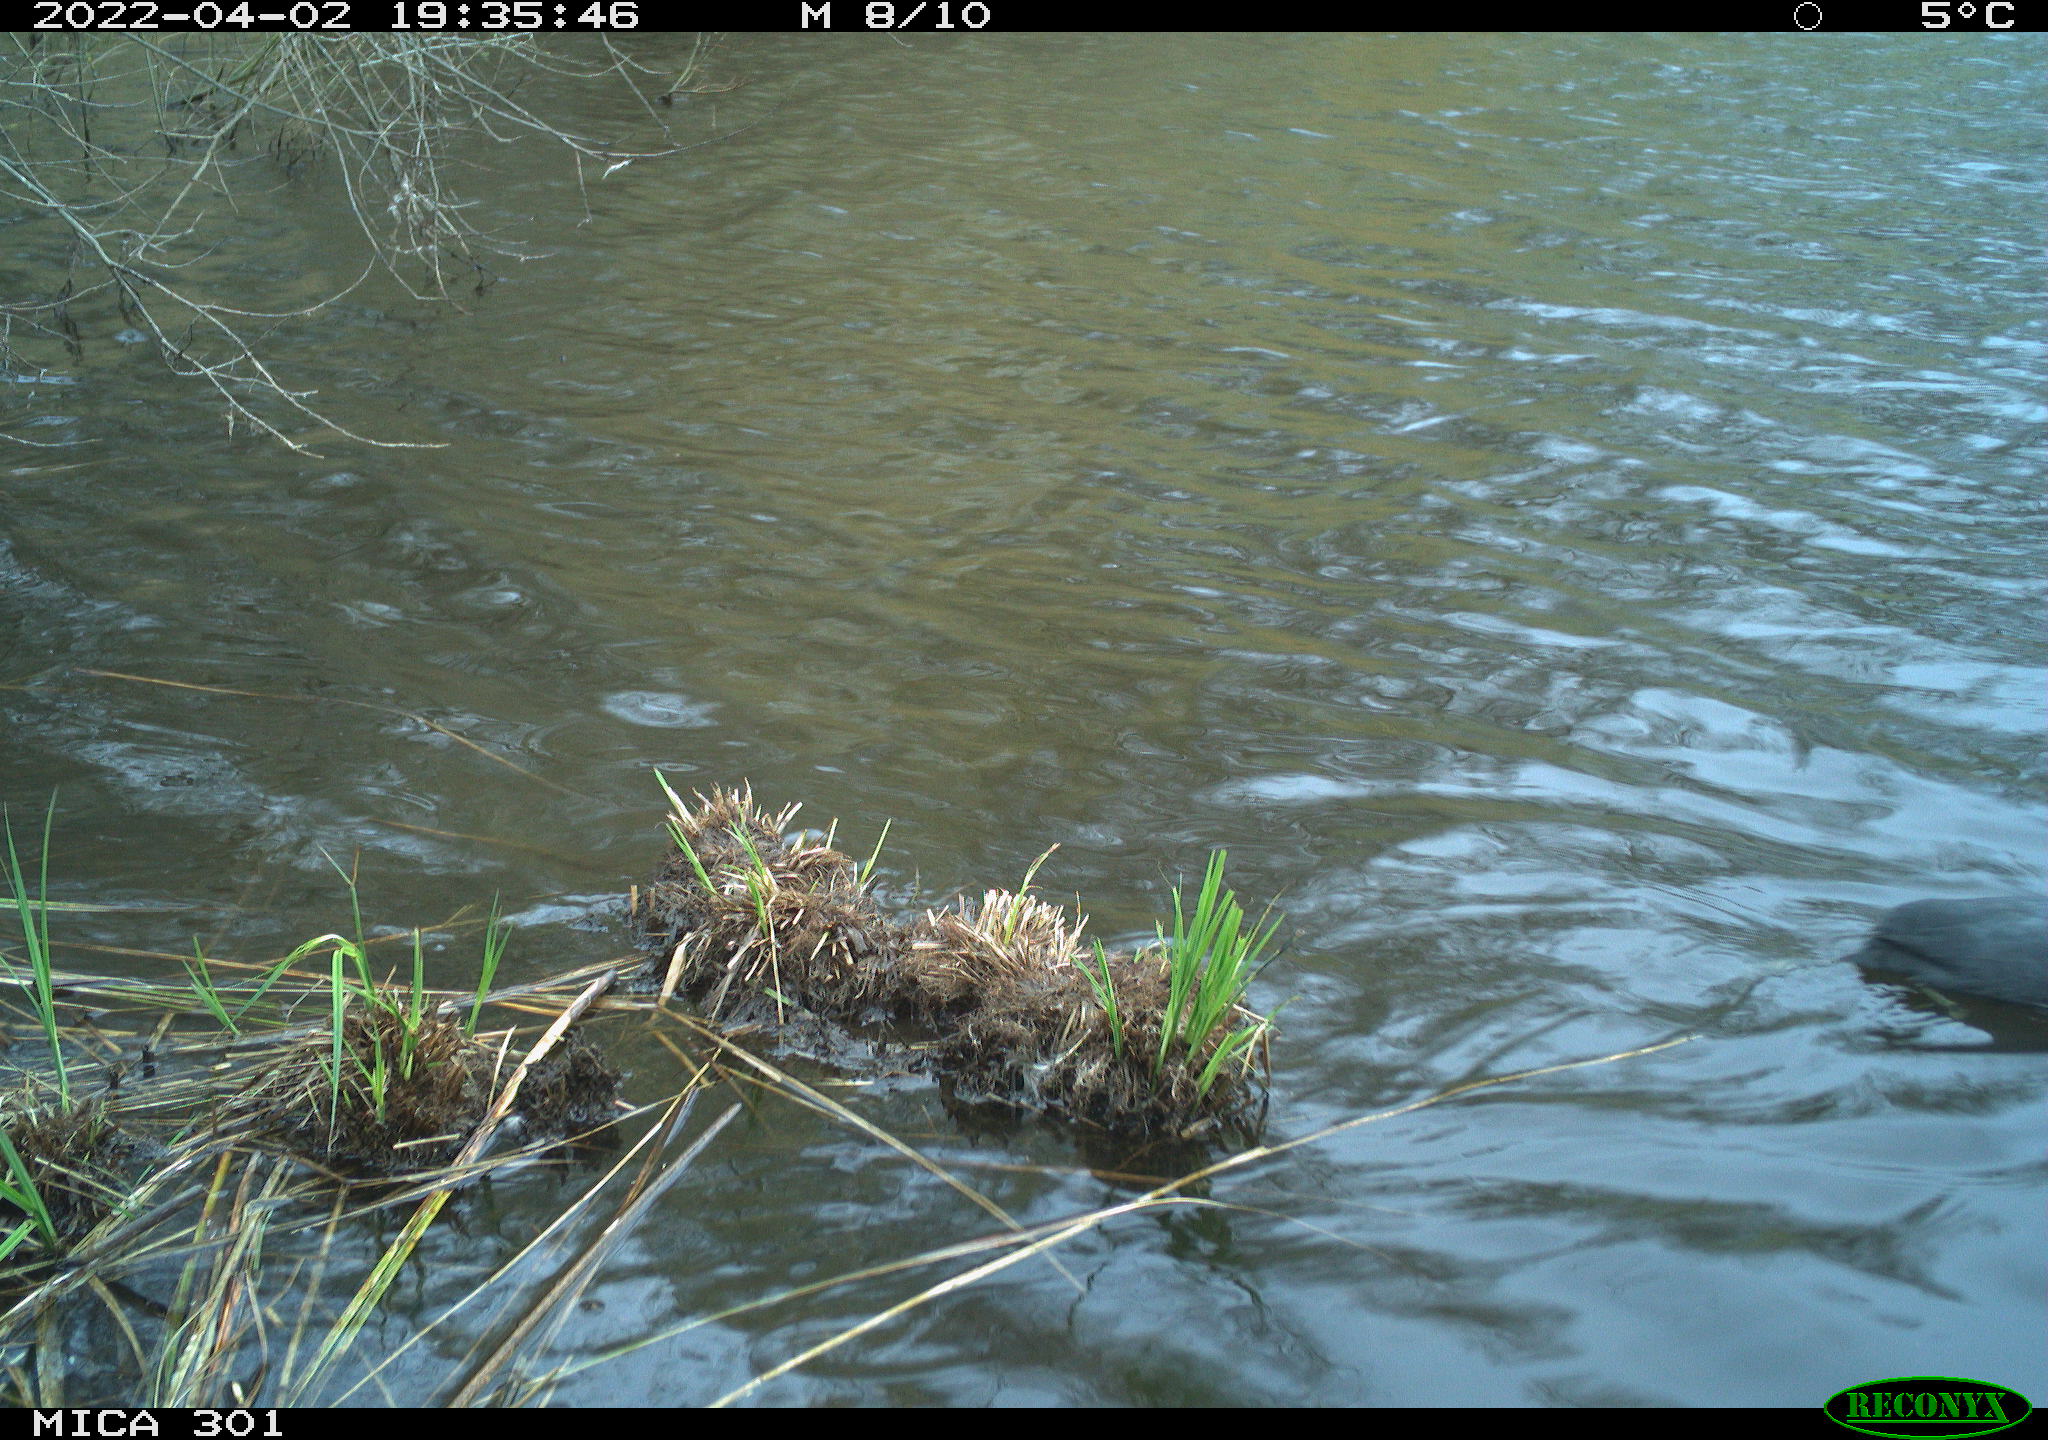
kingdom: Animalia
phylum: Chordata
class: Aves
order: Gruiformes
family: Rallidae
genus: Fulica
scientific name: Fulica atra
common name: Eurasian coot
